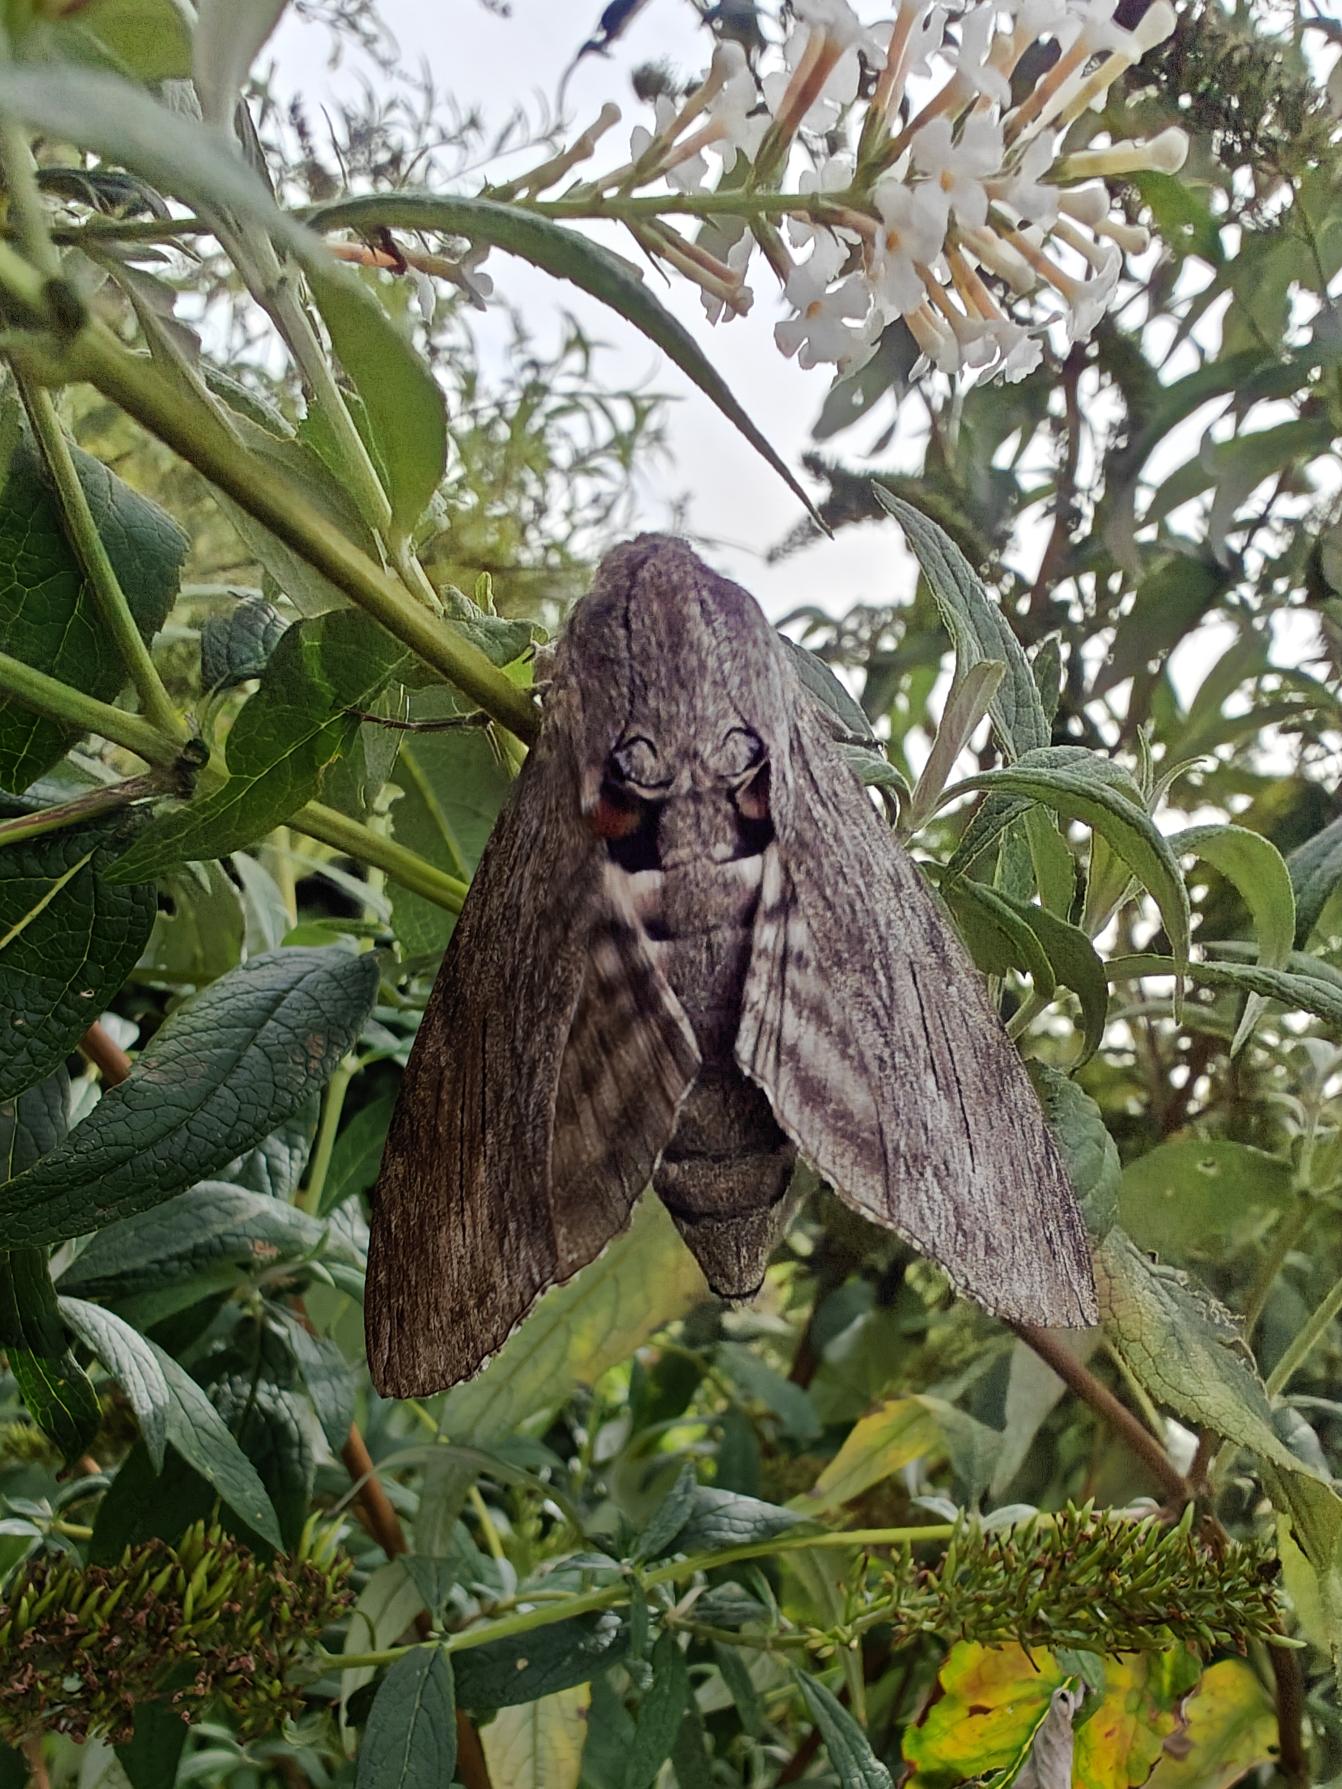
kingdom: Animalia
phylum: Arthropoda
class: Insecta
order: Lepidoptera
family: Sphingidae
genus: Agrius
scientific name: Agrius convolvuli
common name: Snerlesværmer
